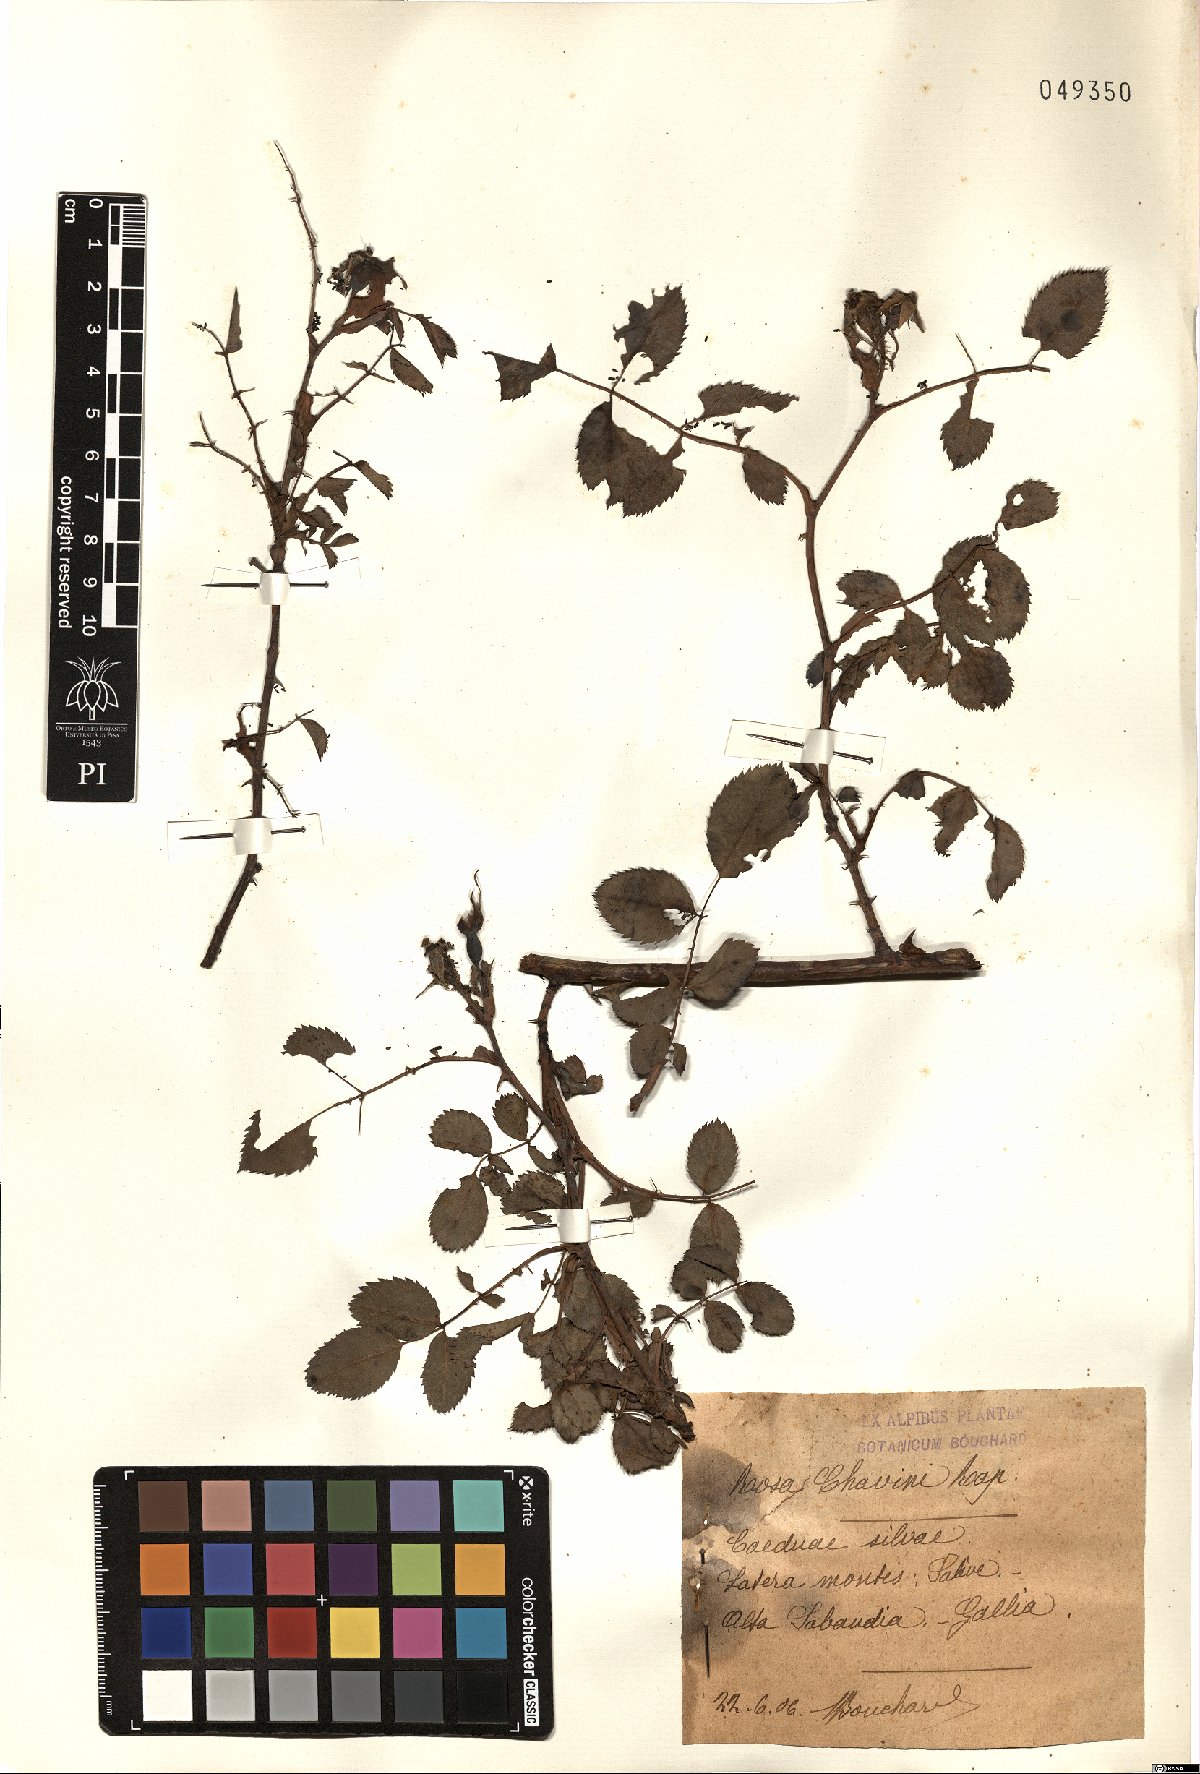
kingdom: Plantae
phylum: Tracheophyta
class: Magnoliopsida
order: Rosales
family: Rosaceae
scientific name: Rosaceae
